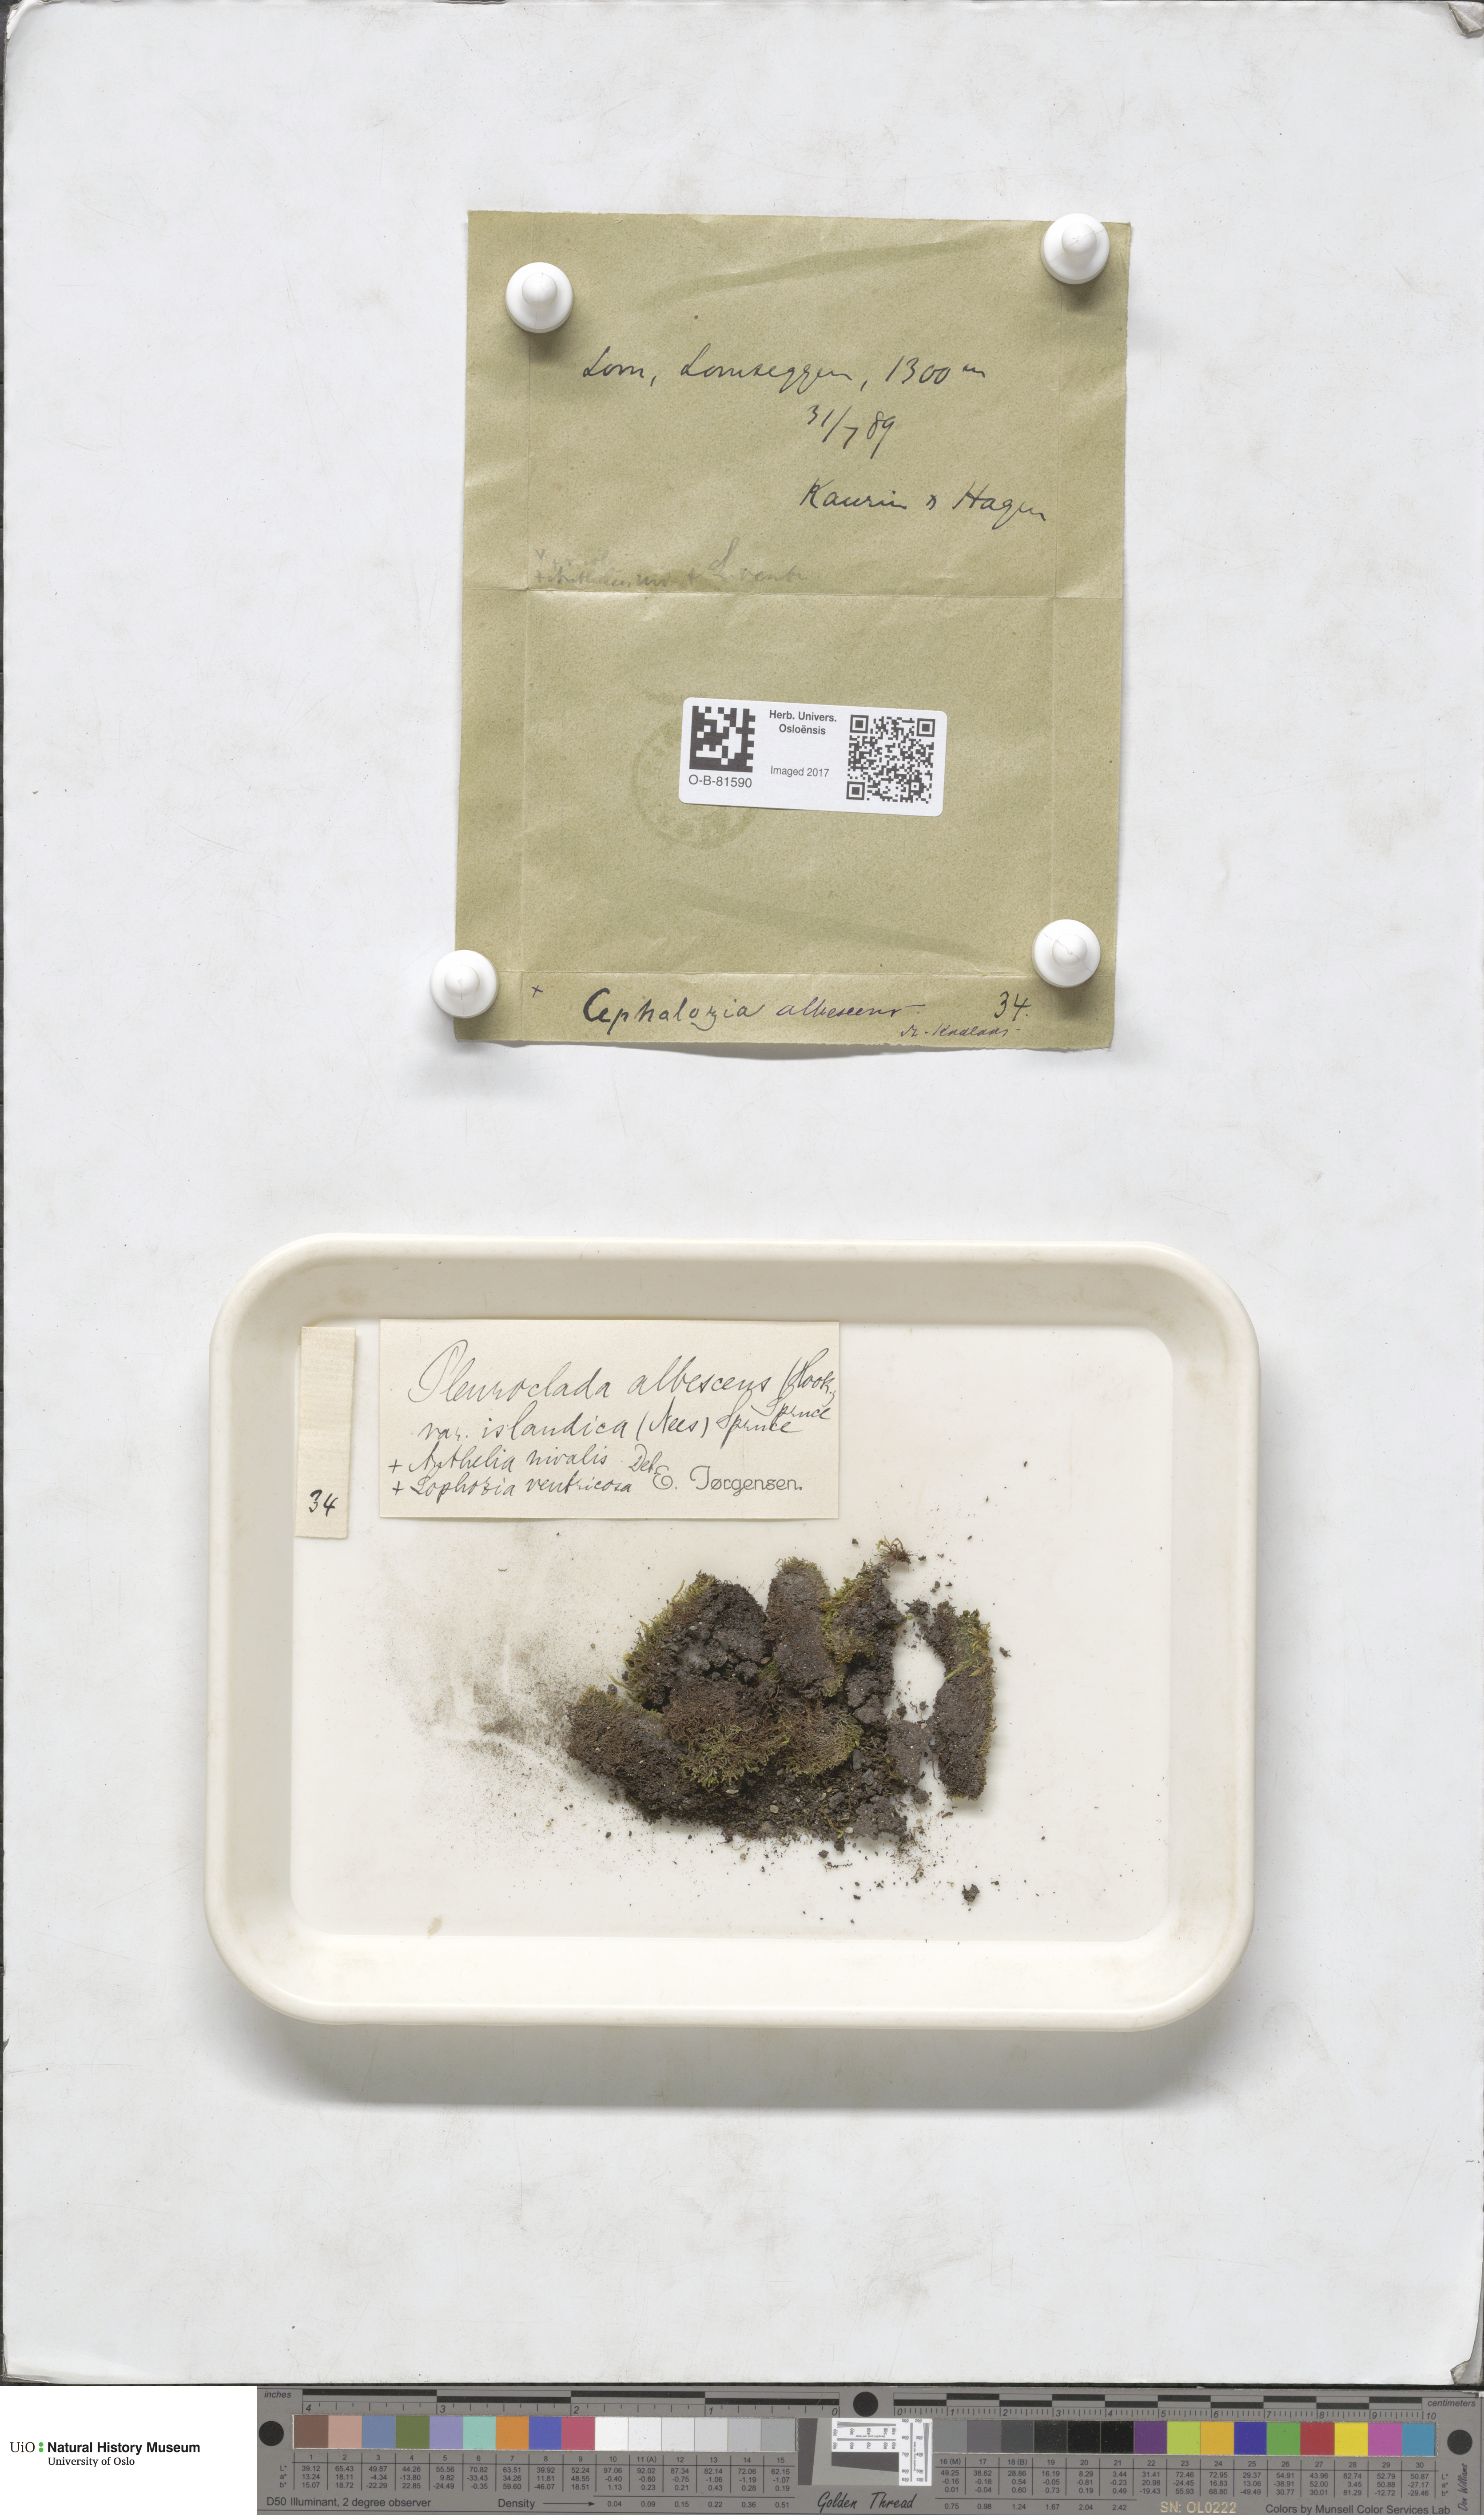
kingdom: Plantae
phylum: Marchantiophyta
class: Jungermanniopsida
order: Jungermanniales
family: Cephaloziaceae
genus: Fuscocephaloziopsis
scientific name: Fuscocephaloziopsis albescens
